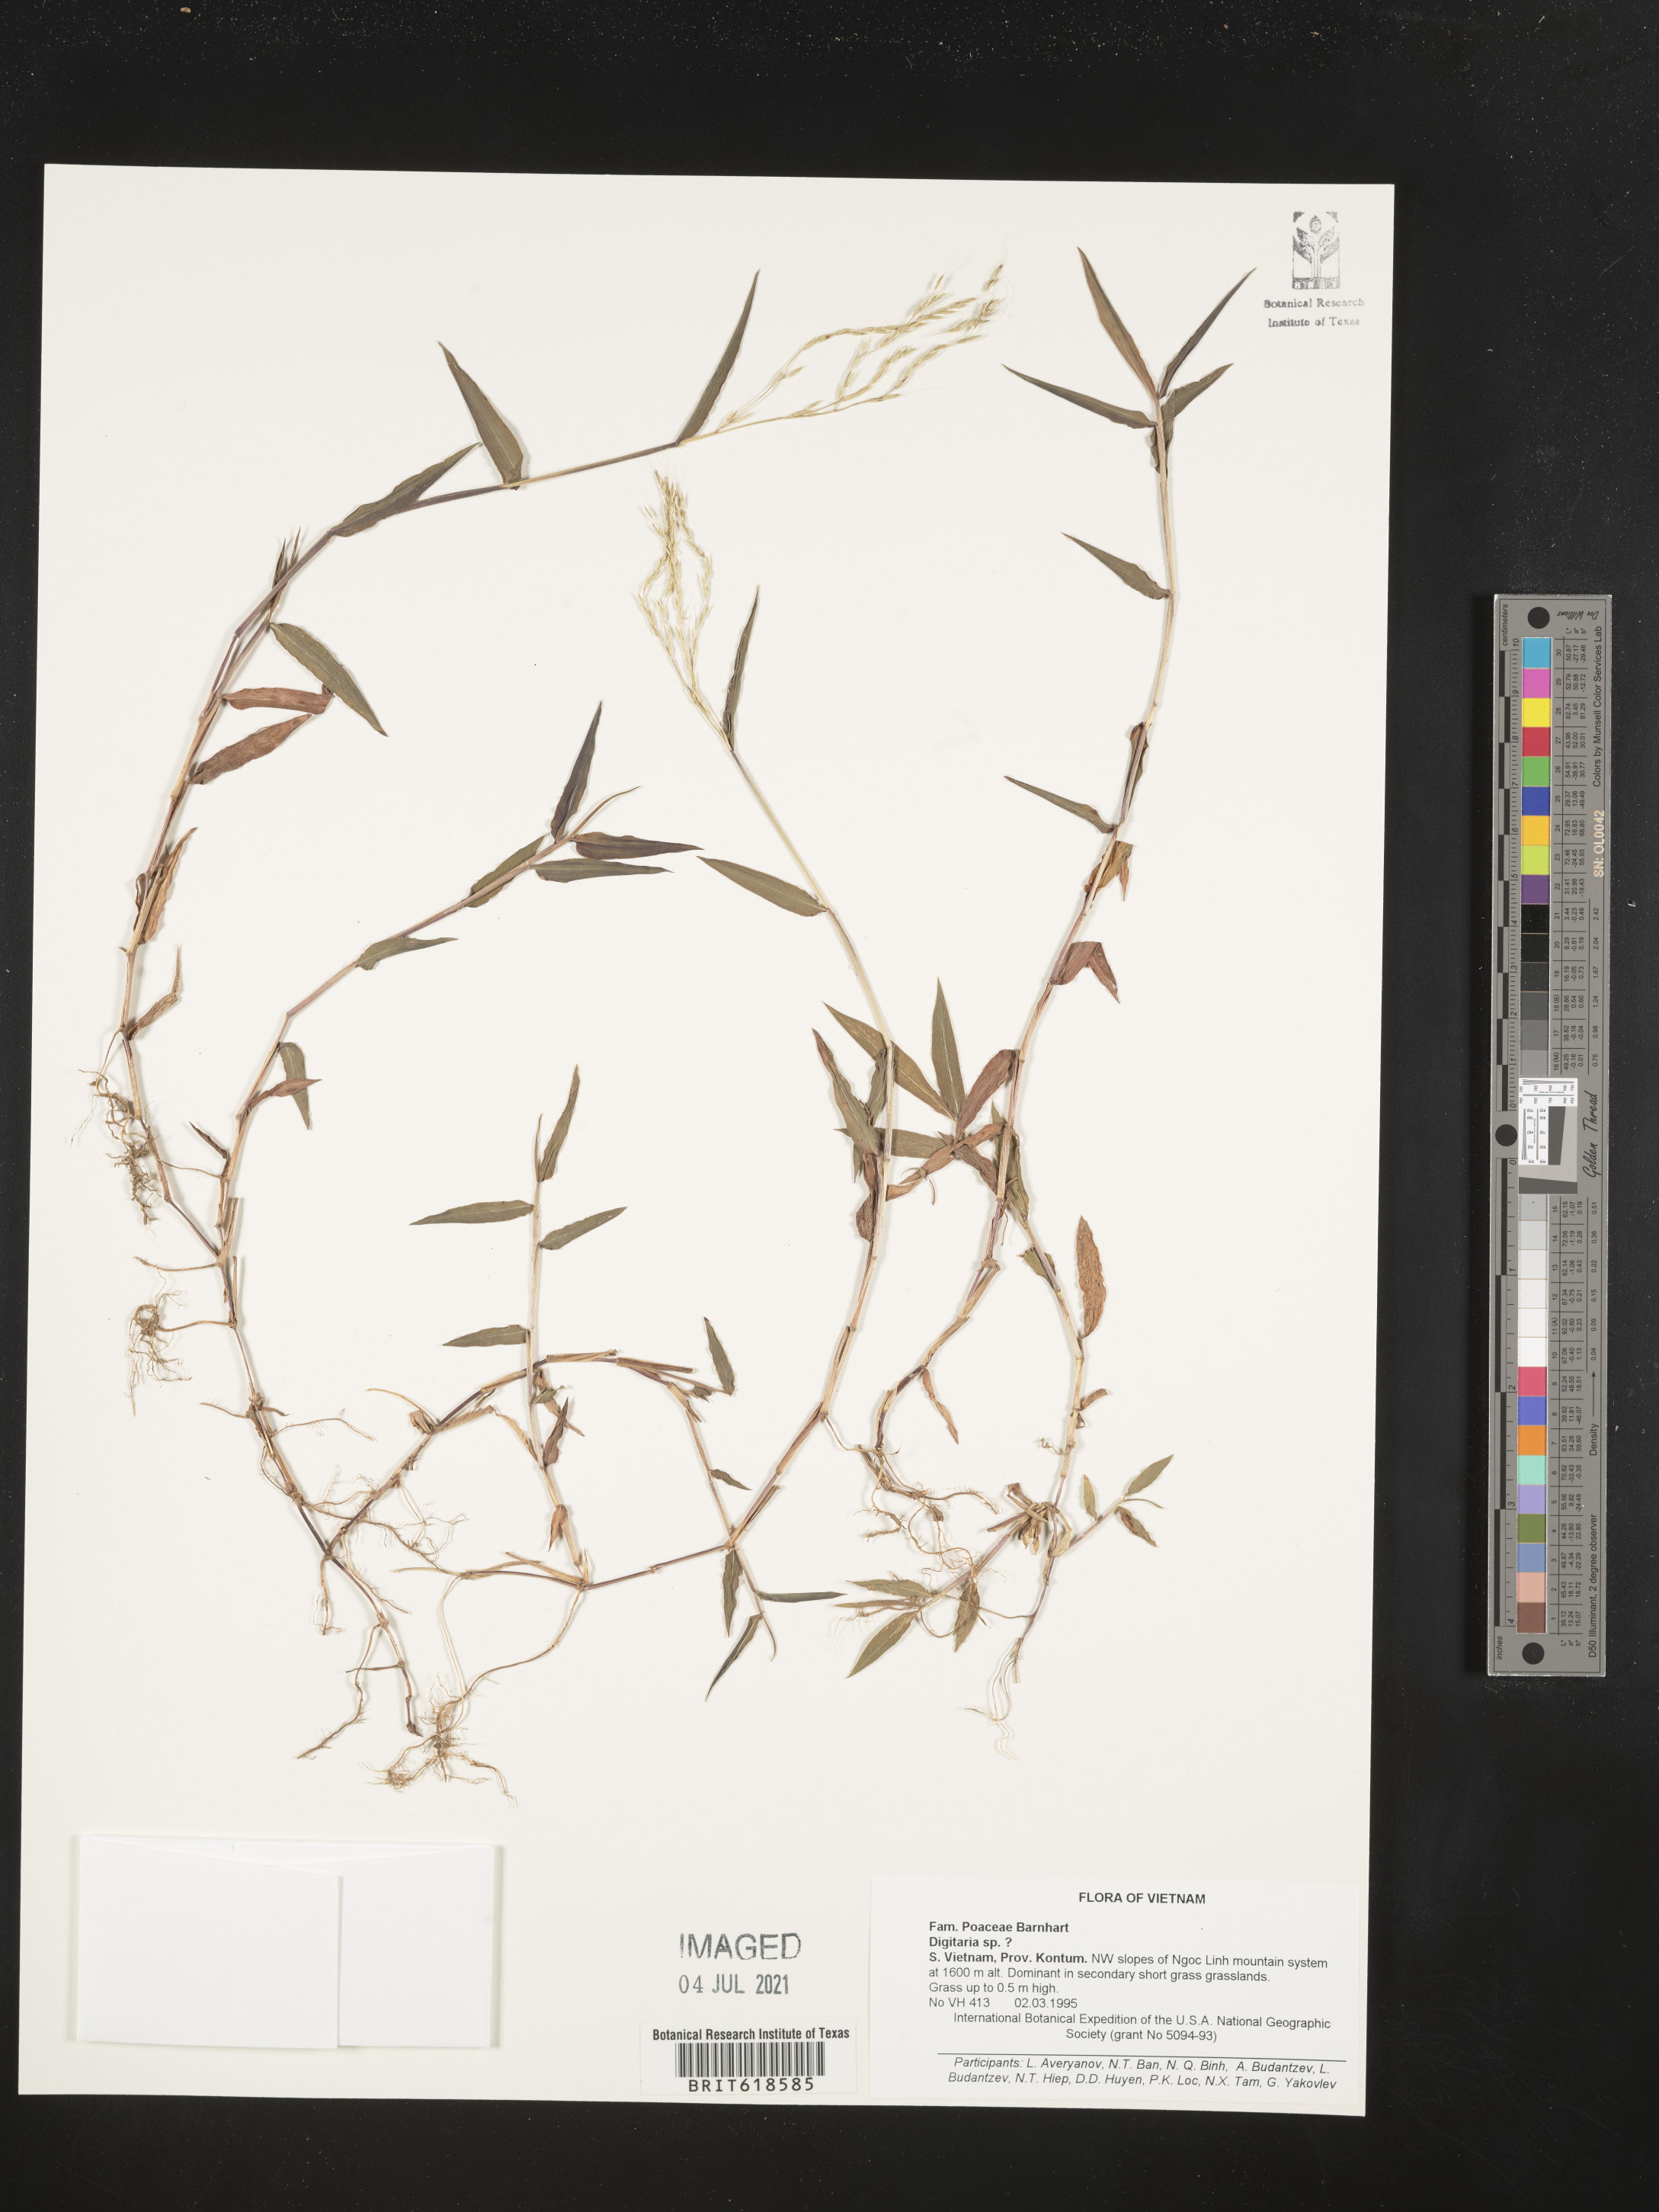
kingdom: Plantae
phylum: Tracheophyta
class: Liliopsida
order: Poales
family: Poaceae
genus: Digitaria
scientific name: Digitaria
